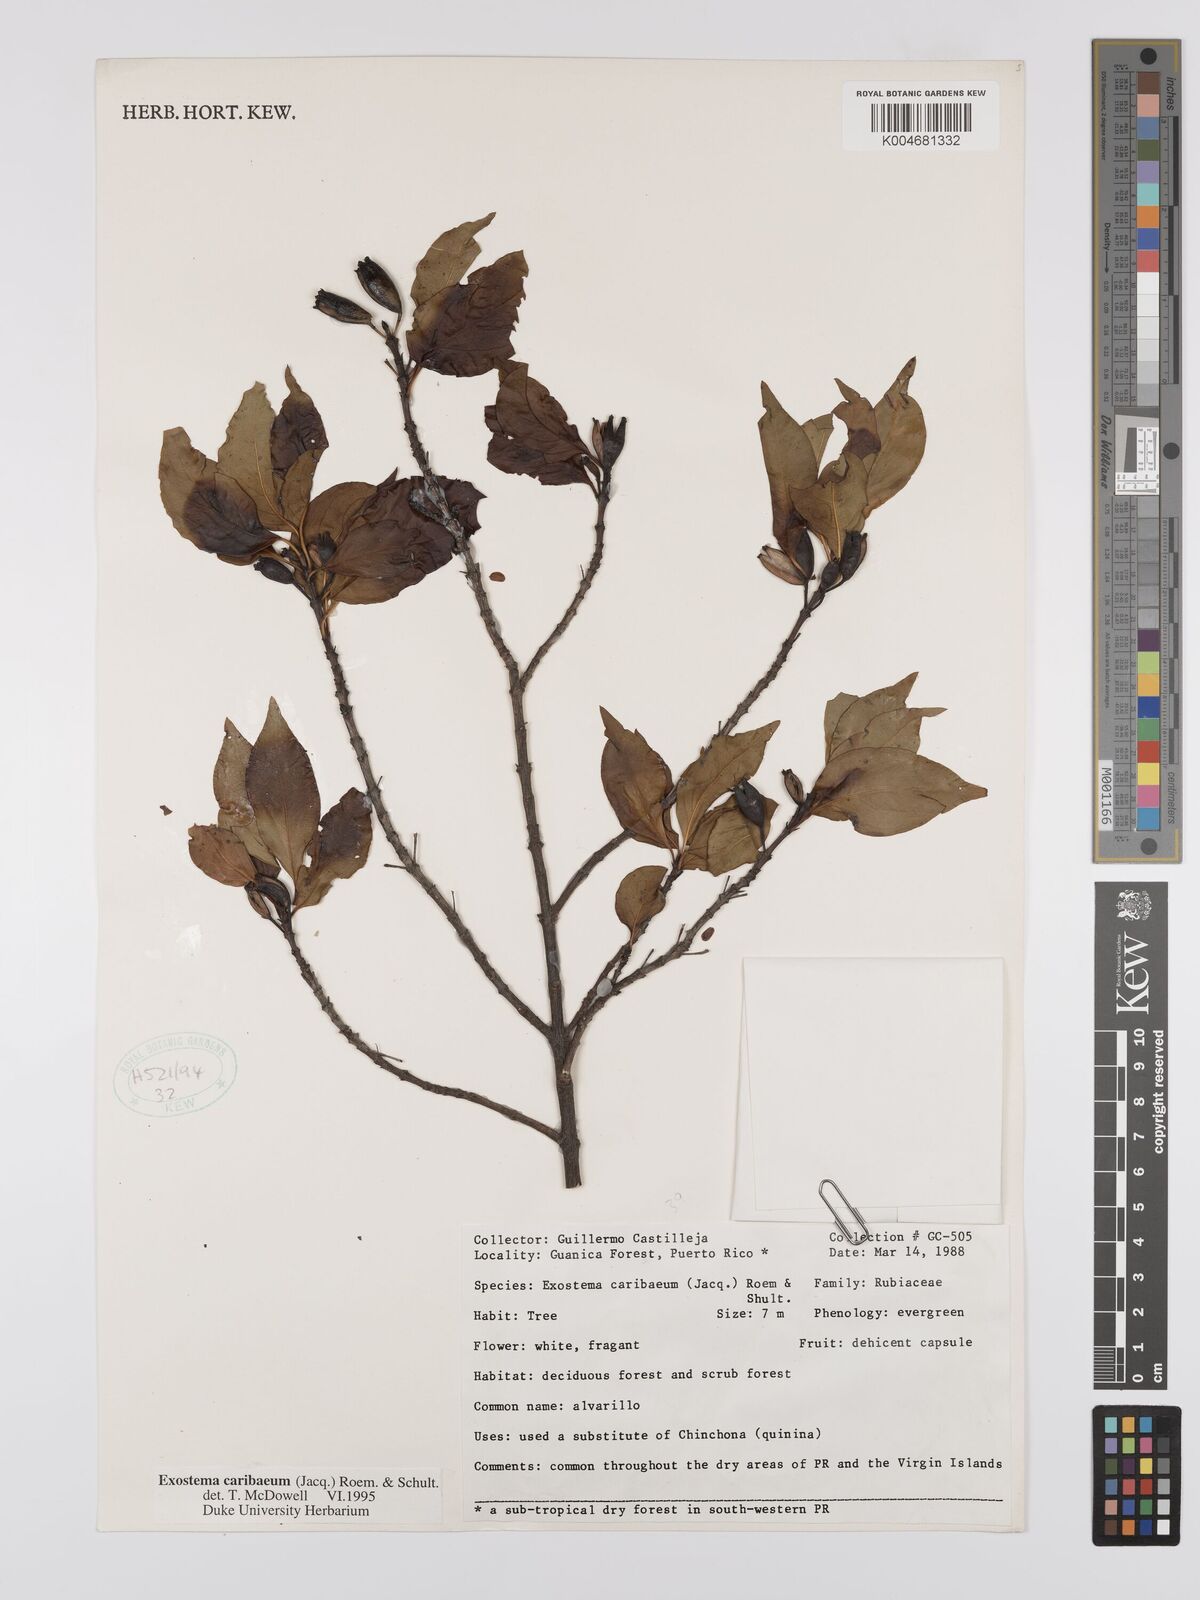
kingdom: Plantae
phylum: Tracheophyta
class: Magnoliopsida
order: Gentianales
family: Rubiaceae
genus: Exostema
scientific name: Exostema caribaeum
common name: Princewood
